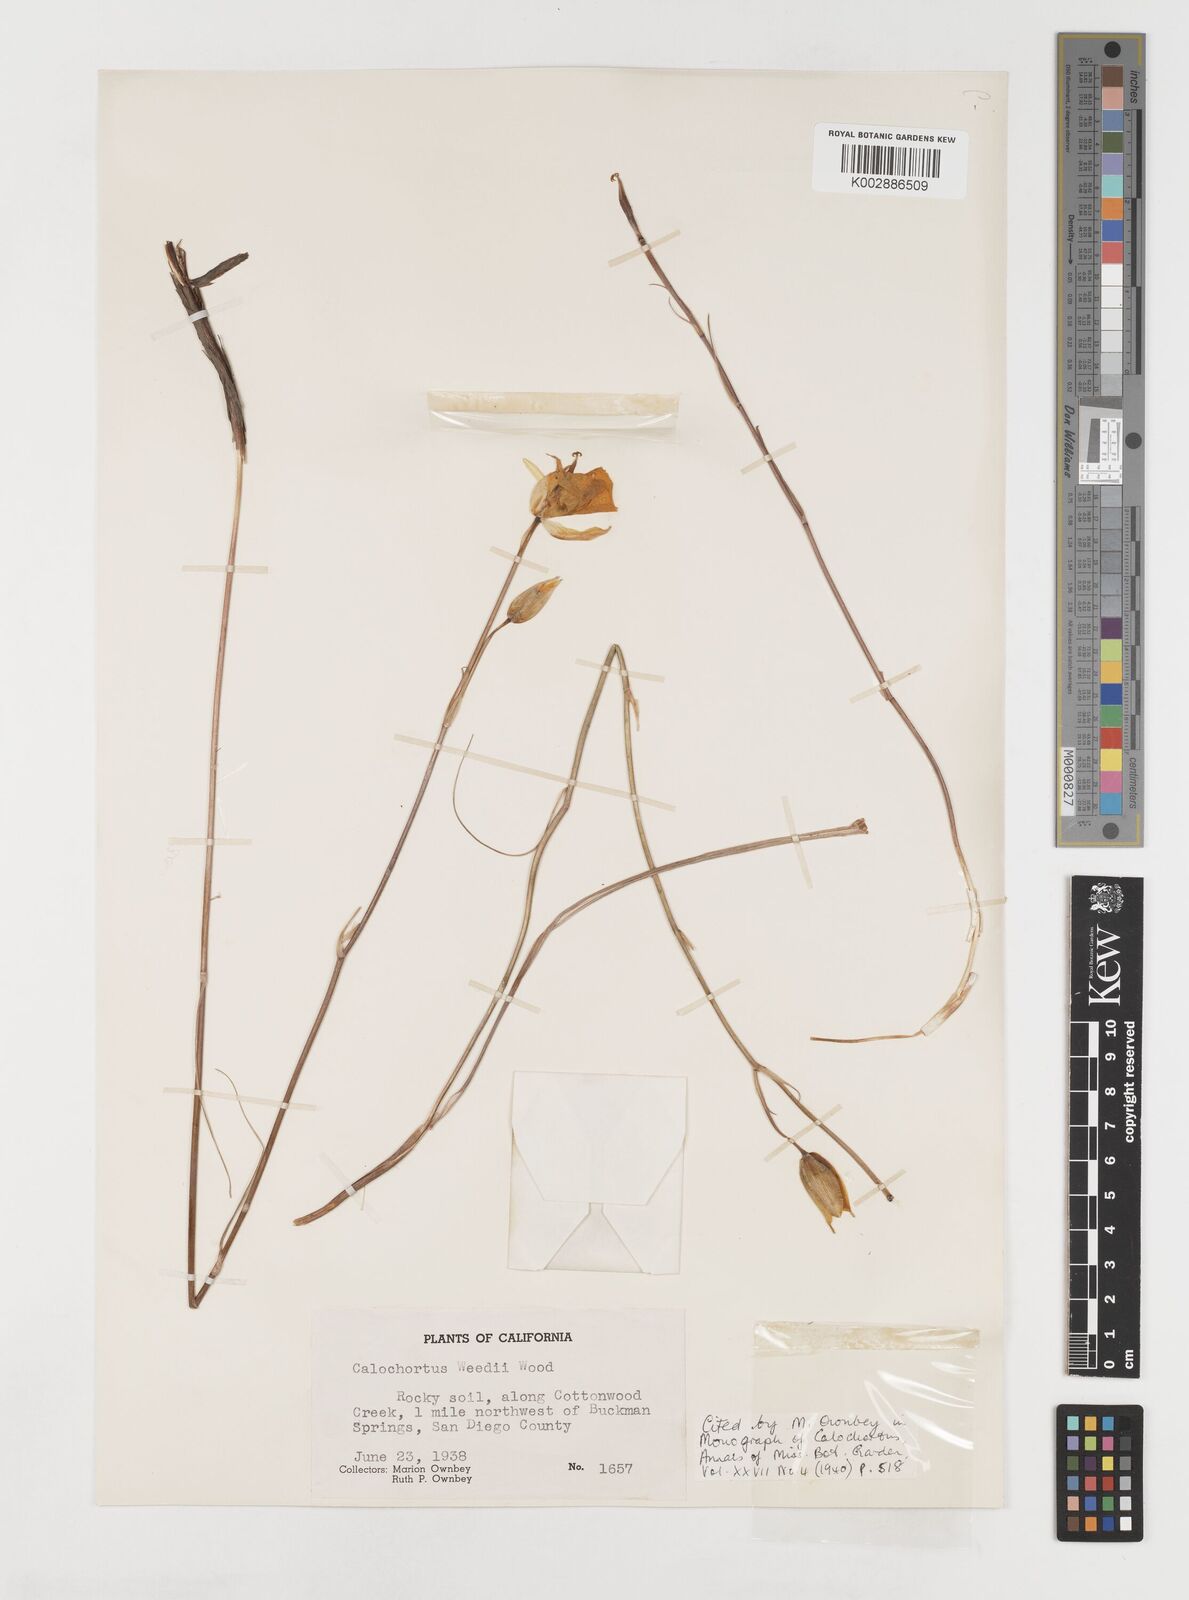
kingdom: Plantae
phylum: Tracheophyta
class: Liliopsida
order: Liliales
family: Liliaceae
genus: Calochortus
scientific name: Calochortus weedii
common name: Weed's mariposa-lily
